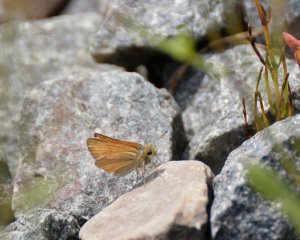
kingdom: Animalia
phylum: Arthropoda
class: Insecta
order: Lepidoptera
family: Hesperiidae
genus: Thymelicus
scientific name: Thymelicus lineola
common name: European Skipper
